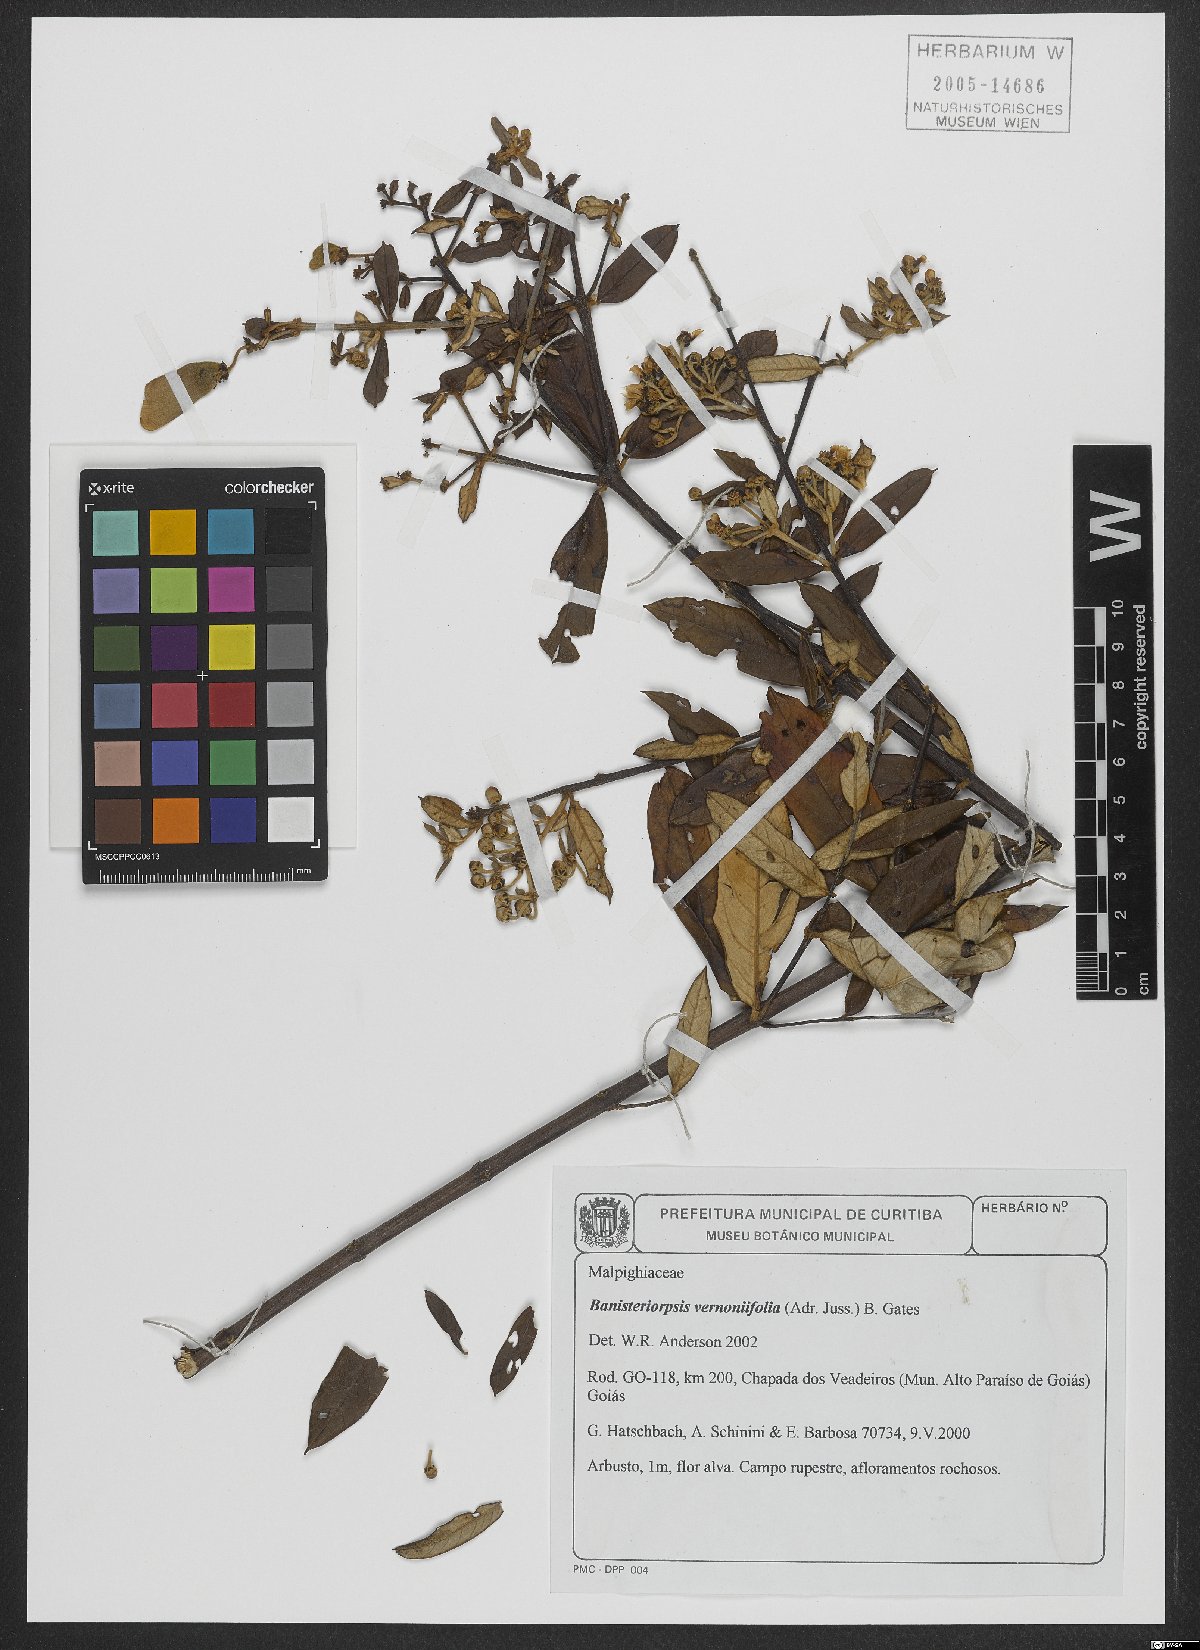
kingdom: Plantae
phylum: Tracheophyta
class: Magnoliopsida
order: Malpighiales
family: Malpighiaceae
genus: Banisteriopsis
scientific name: Banisteriopsis vernoniifolia
